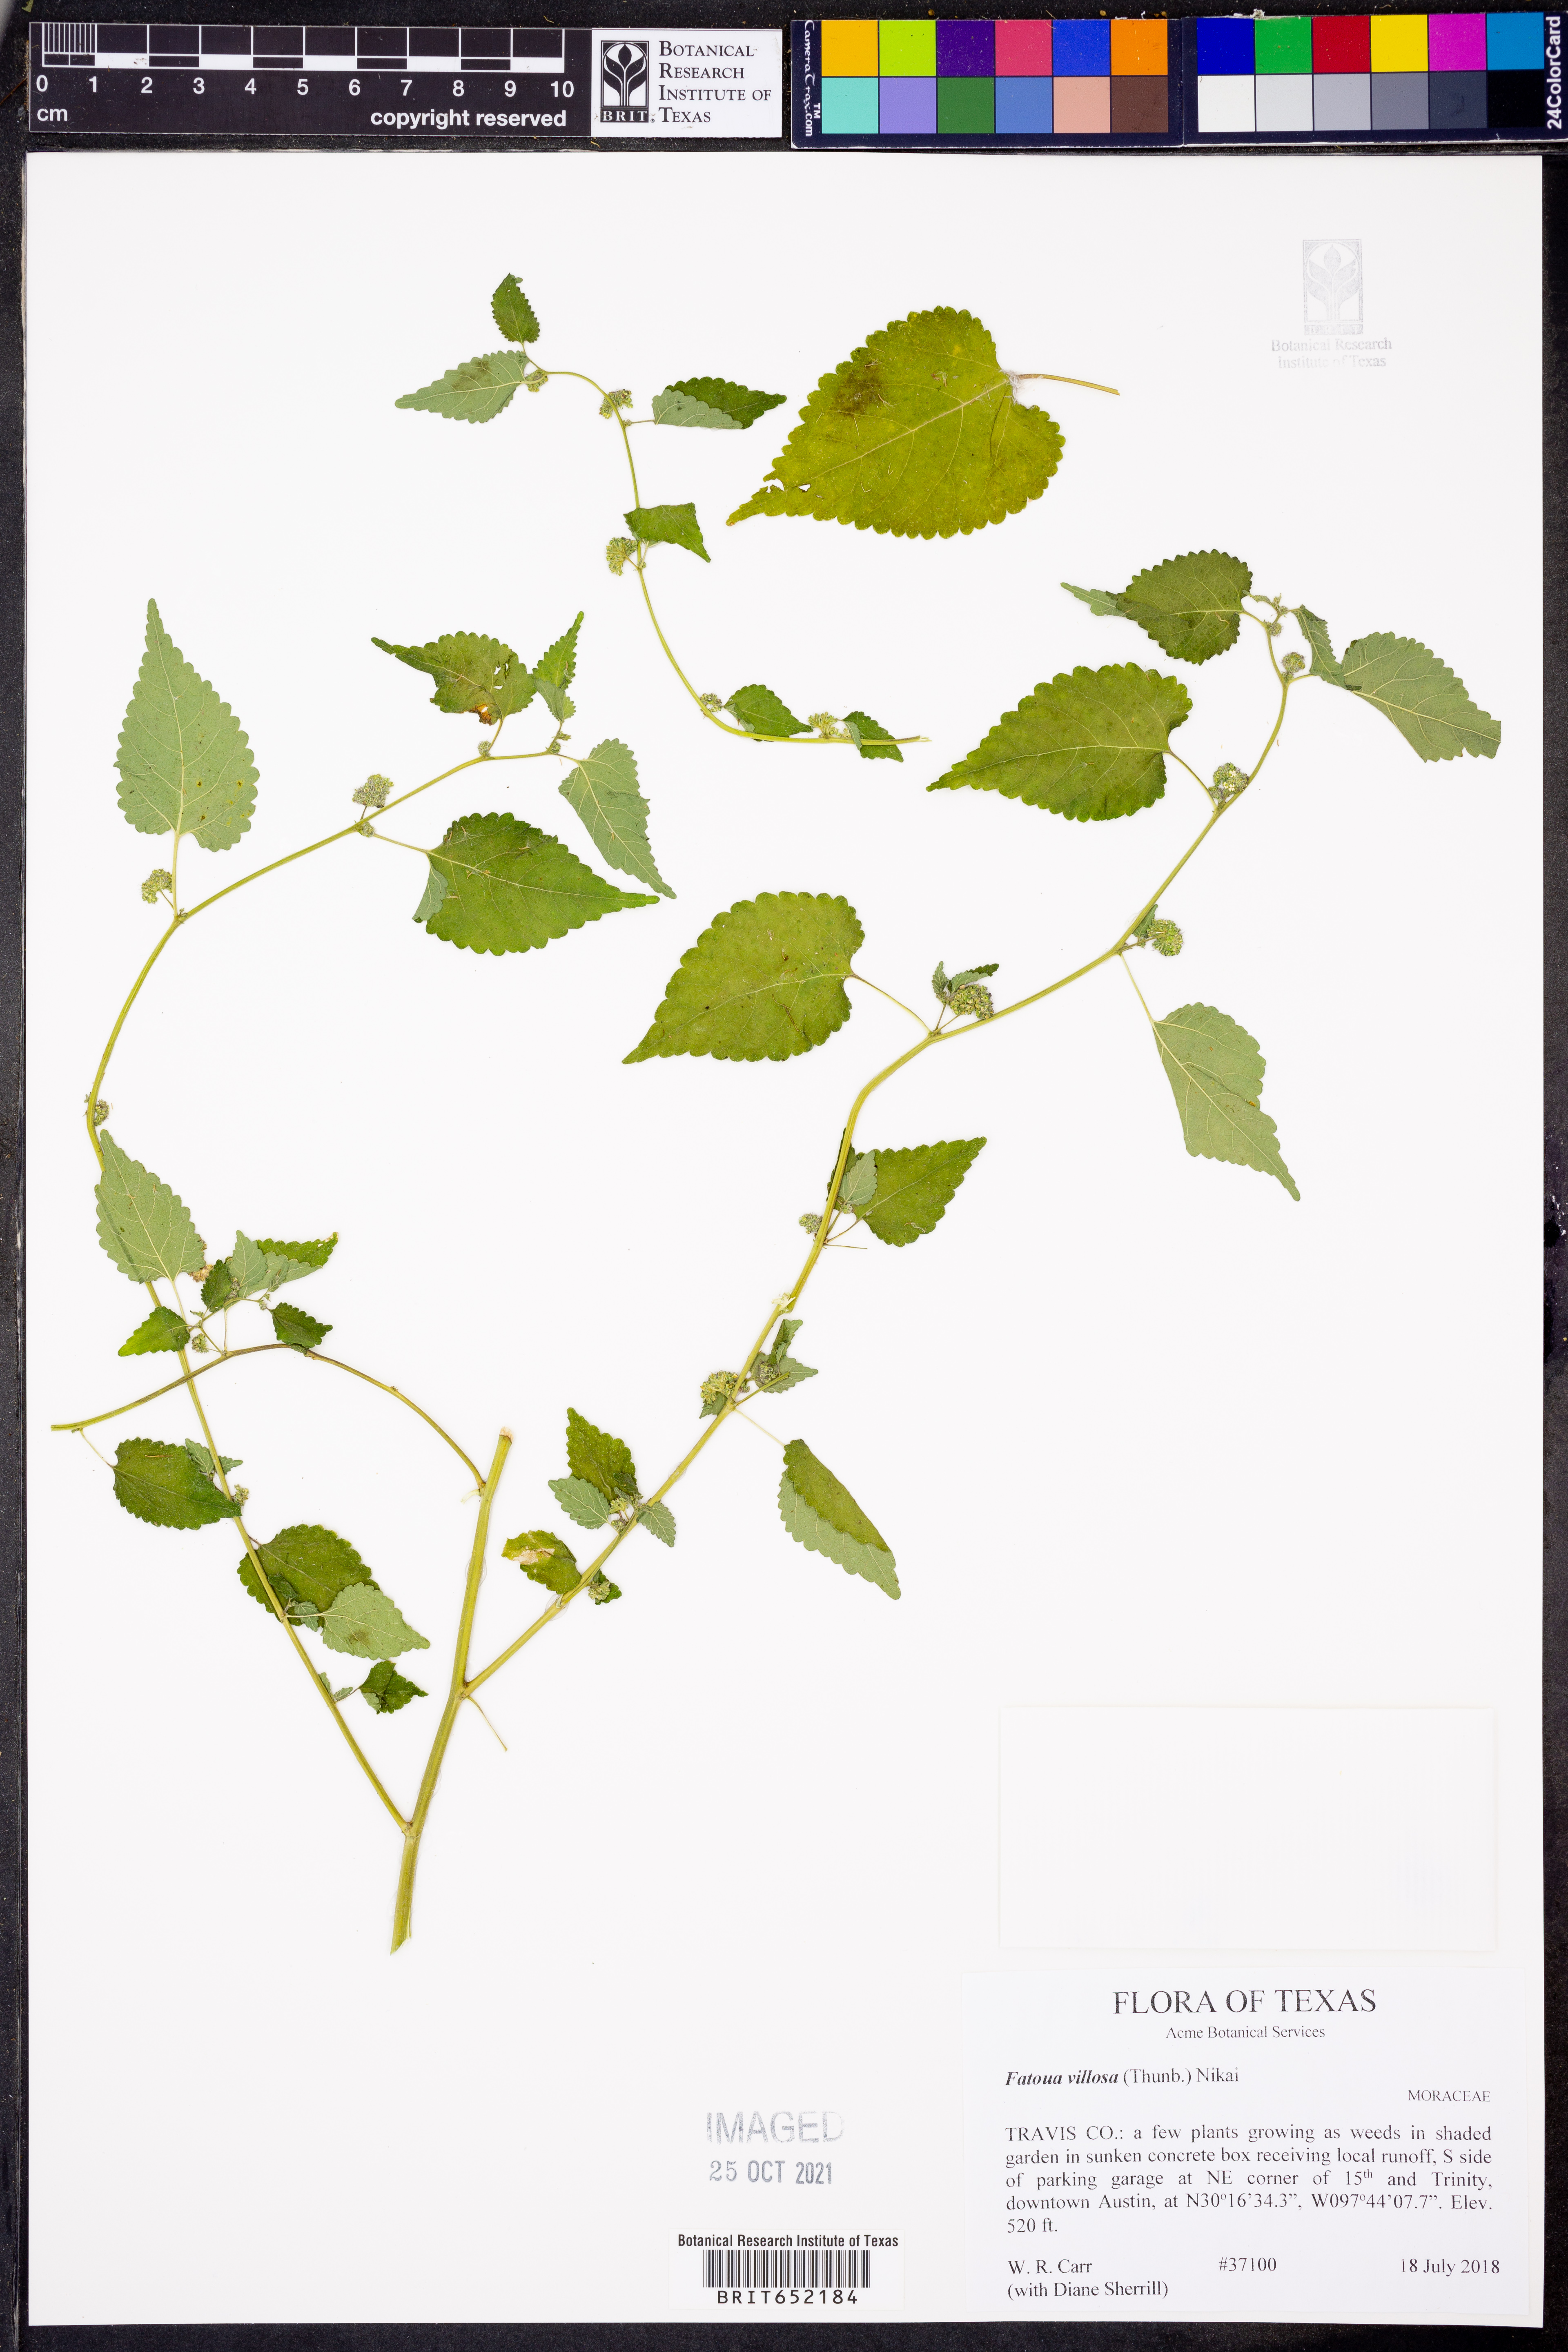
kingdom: Plantae
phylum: Tracheophyta
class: Magnoliopsida
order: Rosales
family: Moraceae
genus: Fatoua
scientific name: Fatoua villosa
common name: Hairy crabweed
